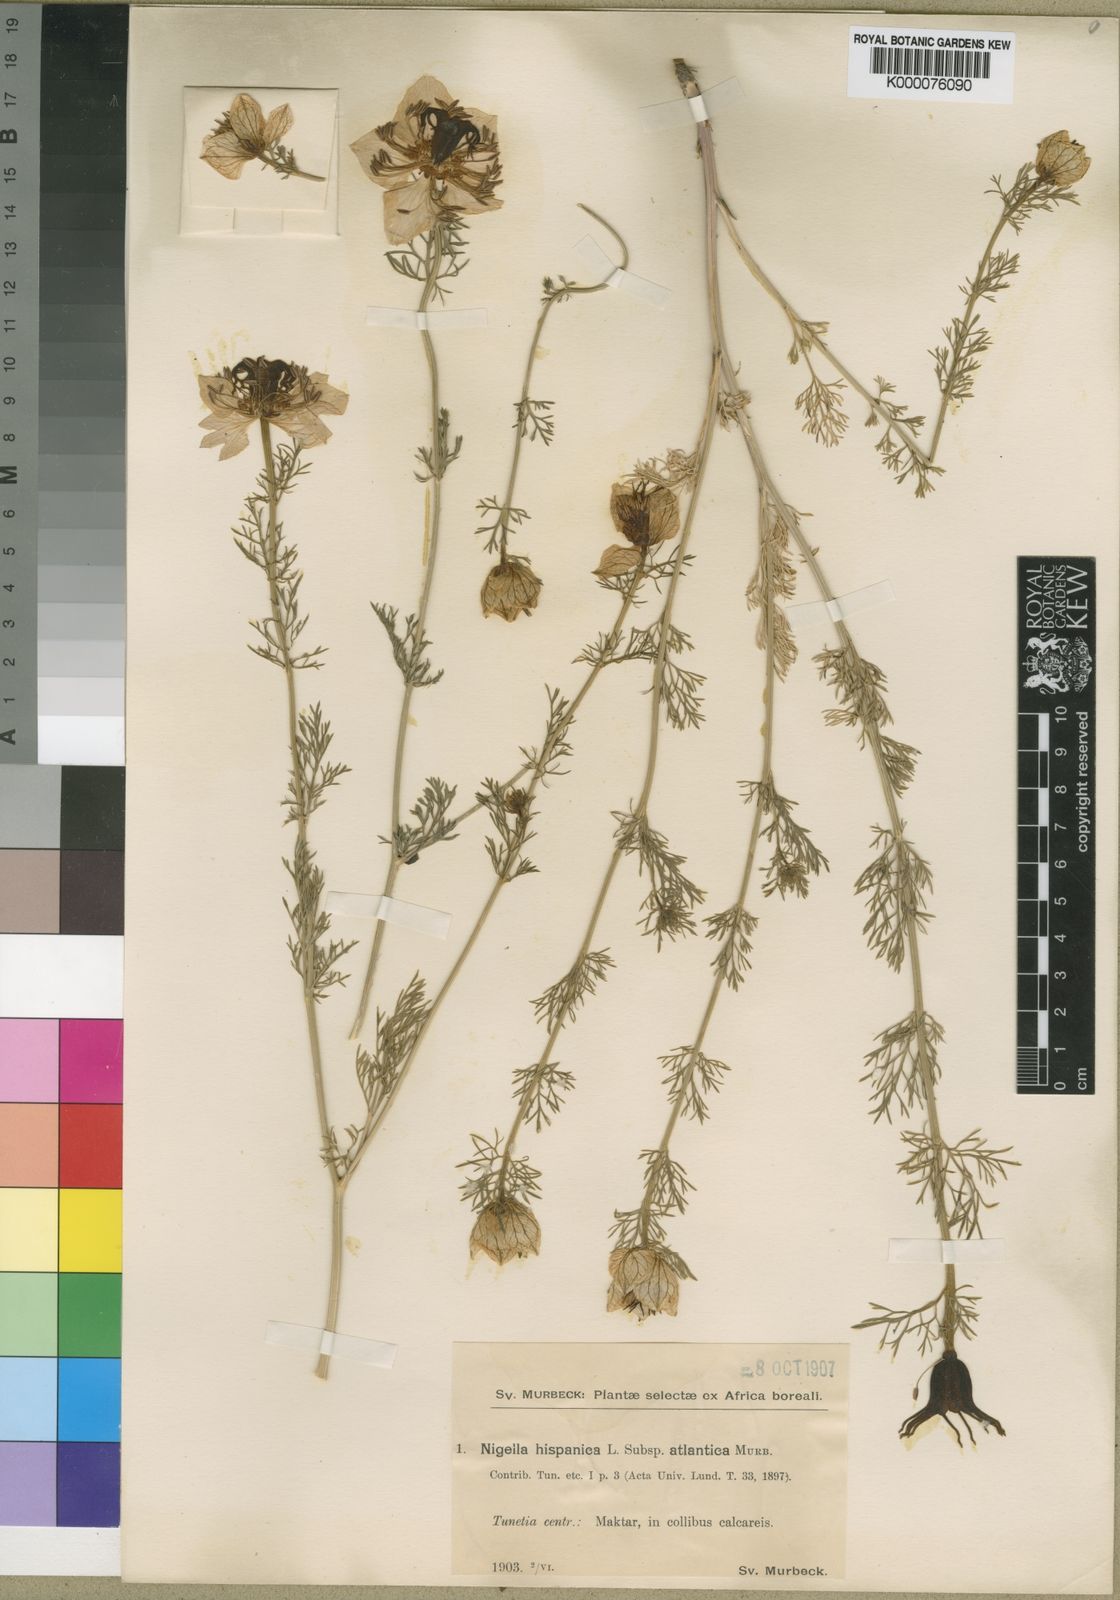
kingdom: Plantae
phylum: Tracheophyta
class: Magnoliopsida
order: Ranunculales
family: Ranunculaceae
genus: Nigella
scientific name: Nigella hispanica
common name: Fennel-flower
